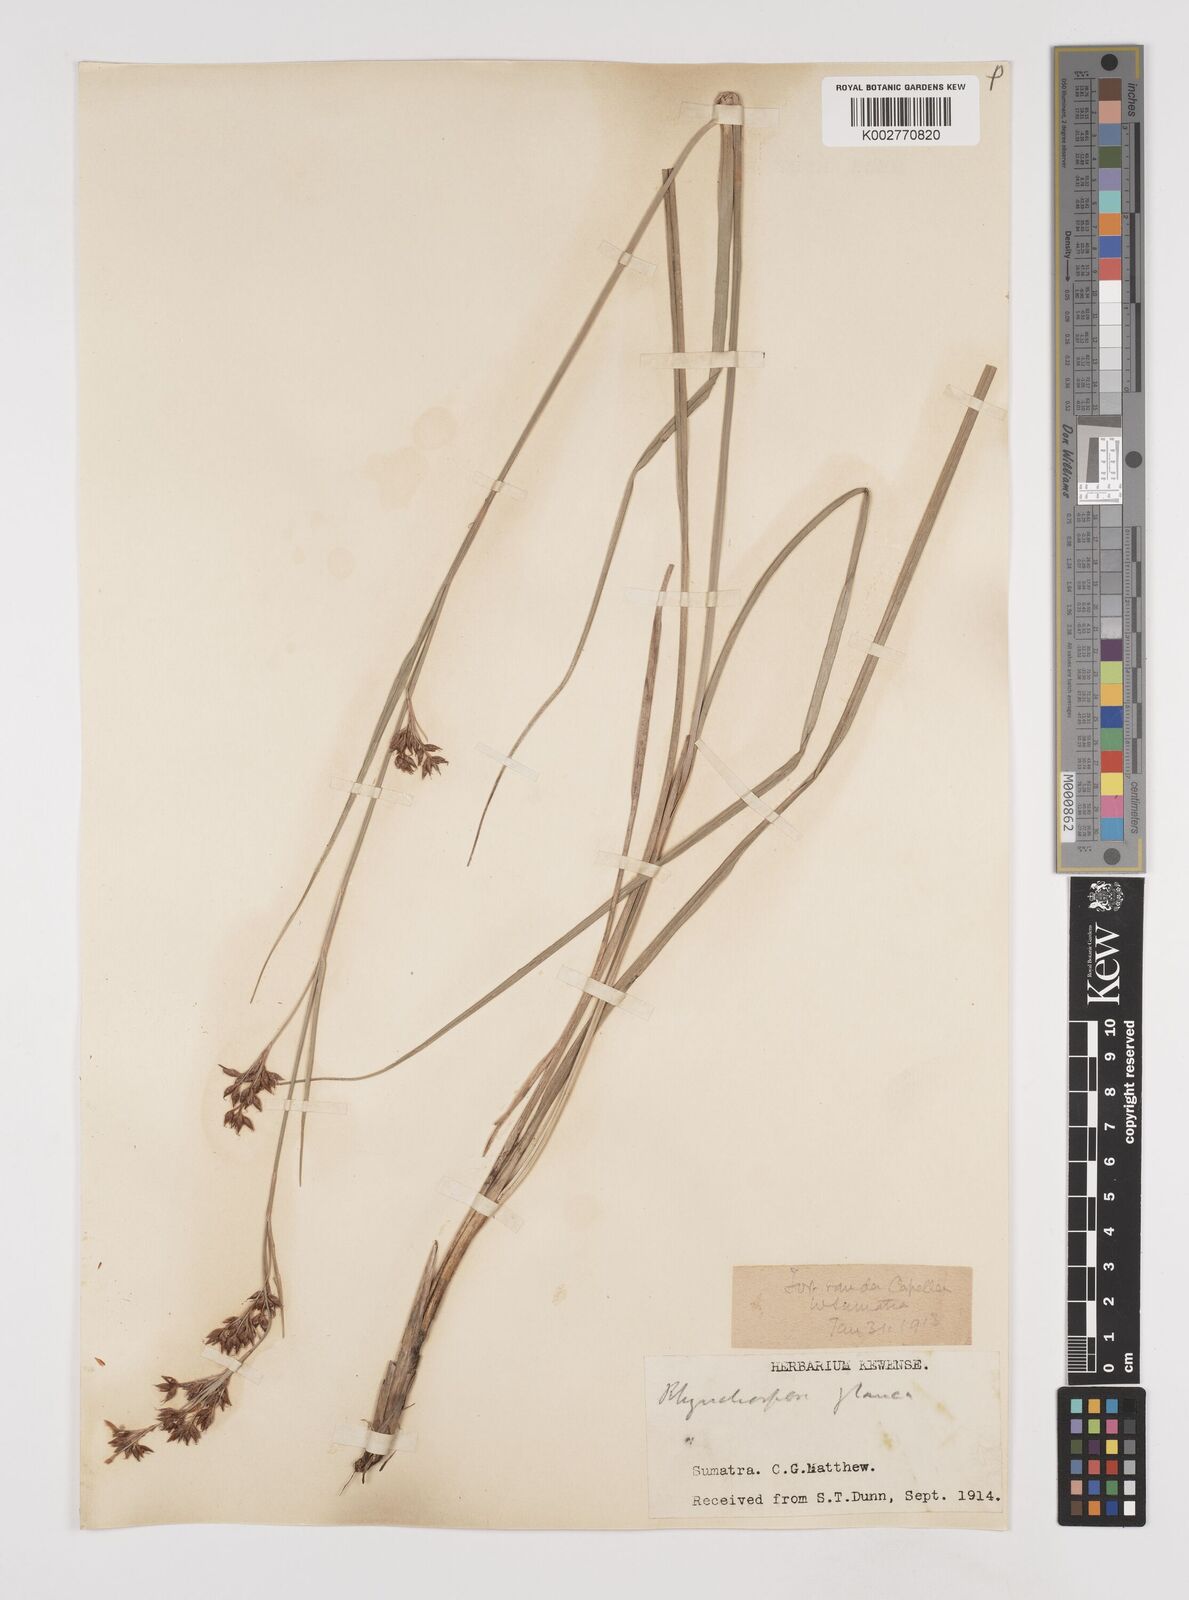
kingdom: Plantae
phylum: Tracheophyta
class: Liliopsida
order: Poales
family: Cyperaceae
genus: Rhynchospora
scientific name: Rhynchospora rugosa
